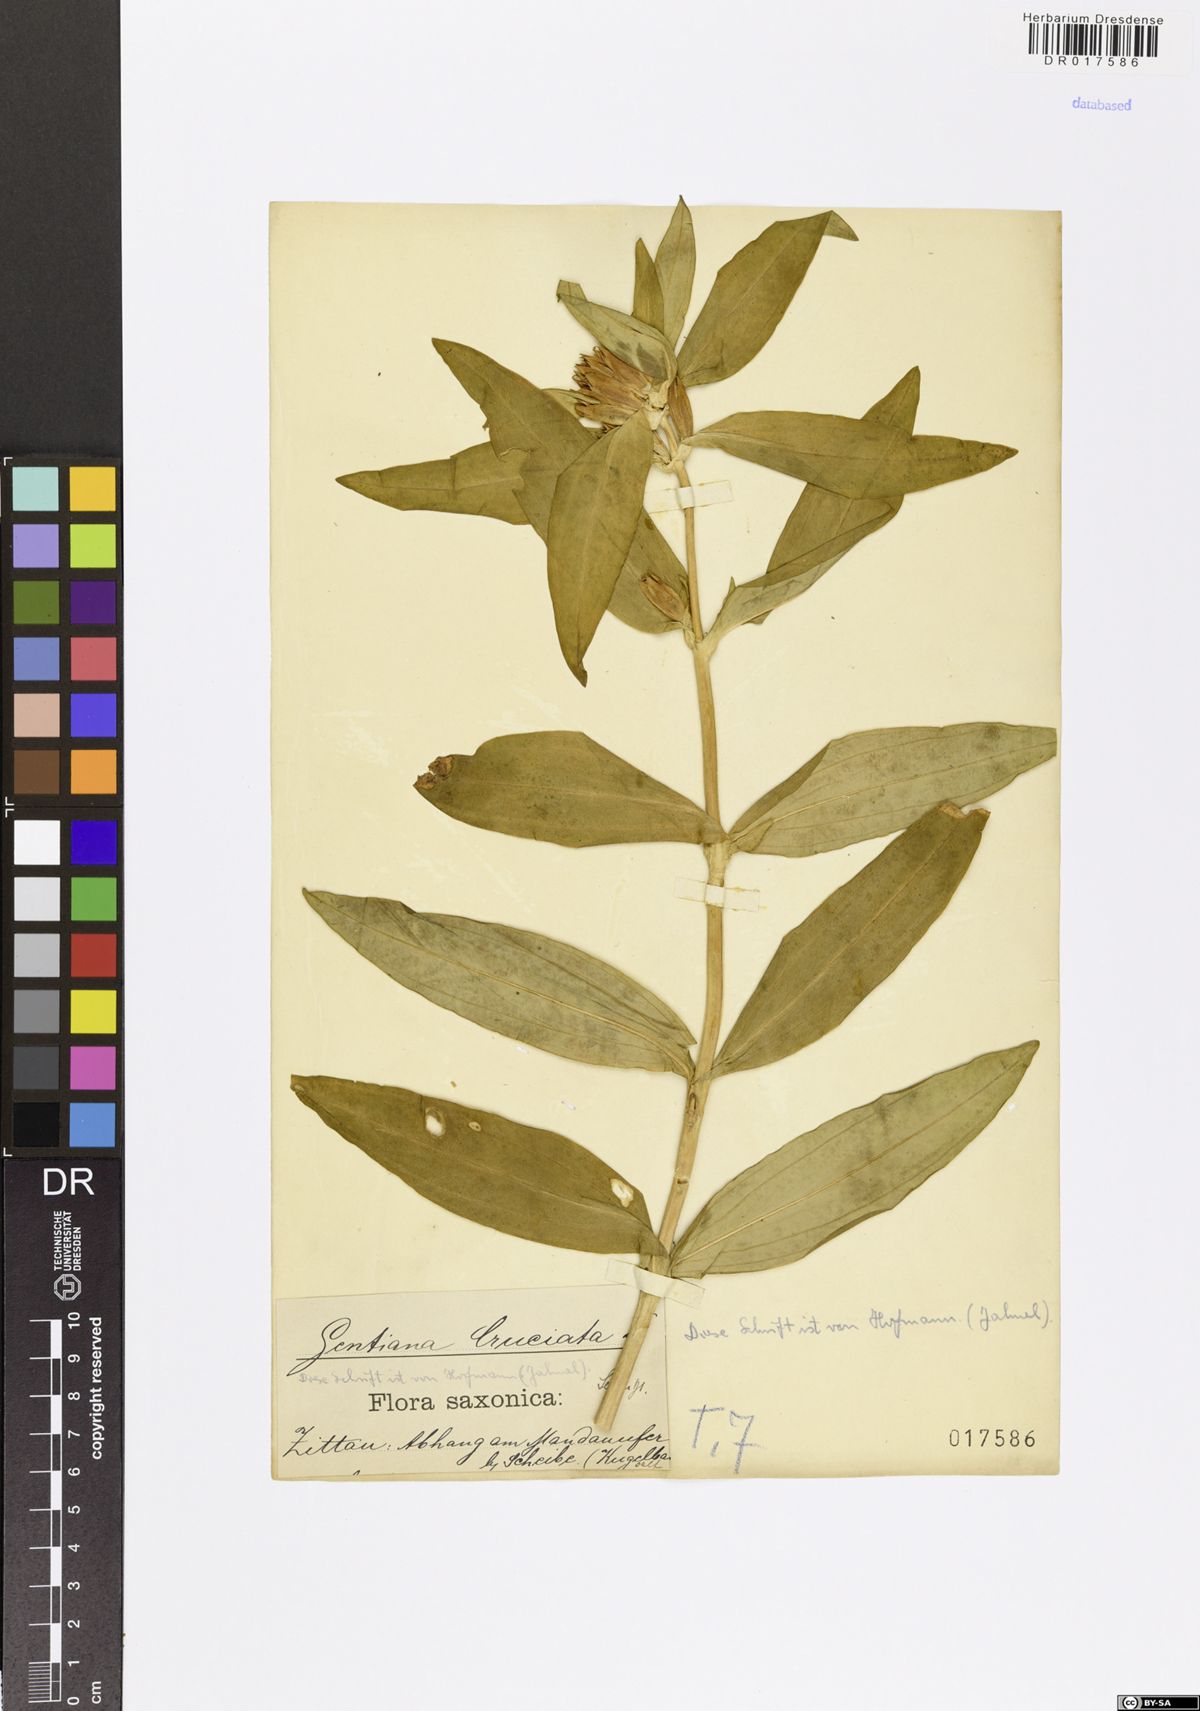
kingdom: Plantae
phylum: Tracheophyta
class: Magnoliopsida
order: Gentianales
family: Gentianaceae
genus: Gentiana
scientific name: Gentiana cruciata
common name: Cross gentian
